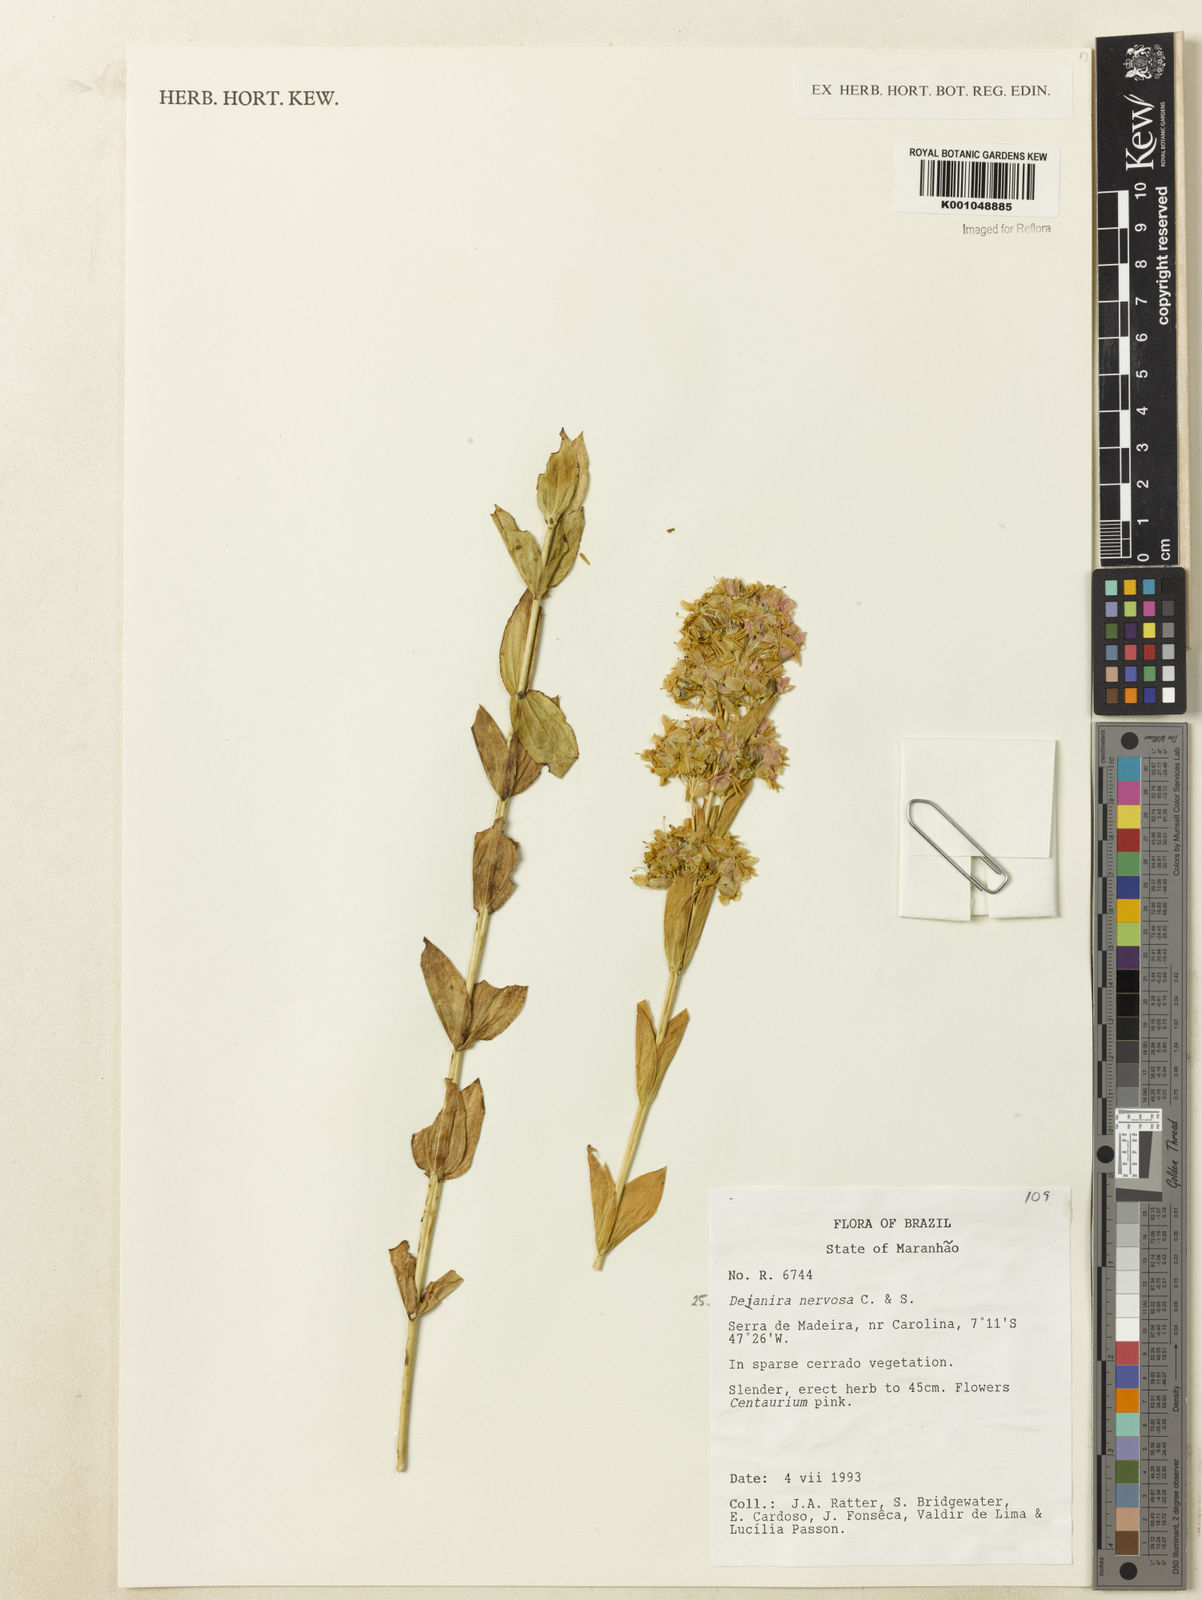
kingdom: Plantae
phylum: Tracheophyta
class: Magnoliopsida
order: Gentianales
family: Gentianaceae
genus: Deianira
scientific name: Deianira
